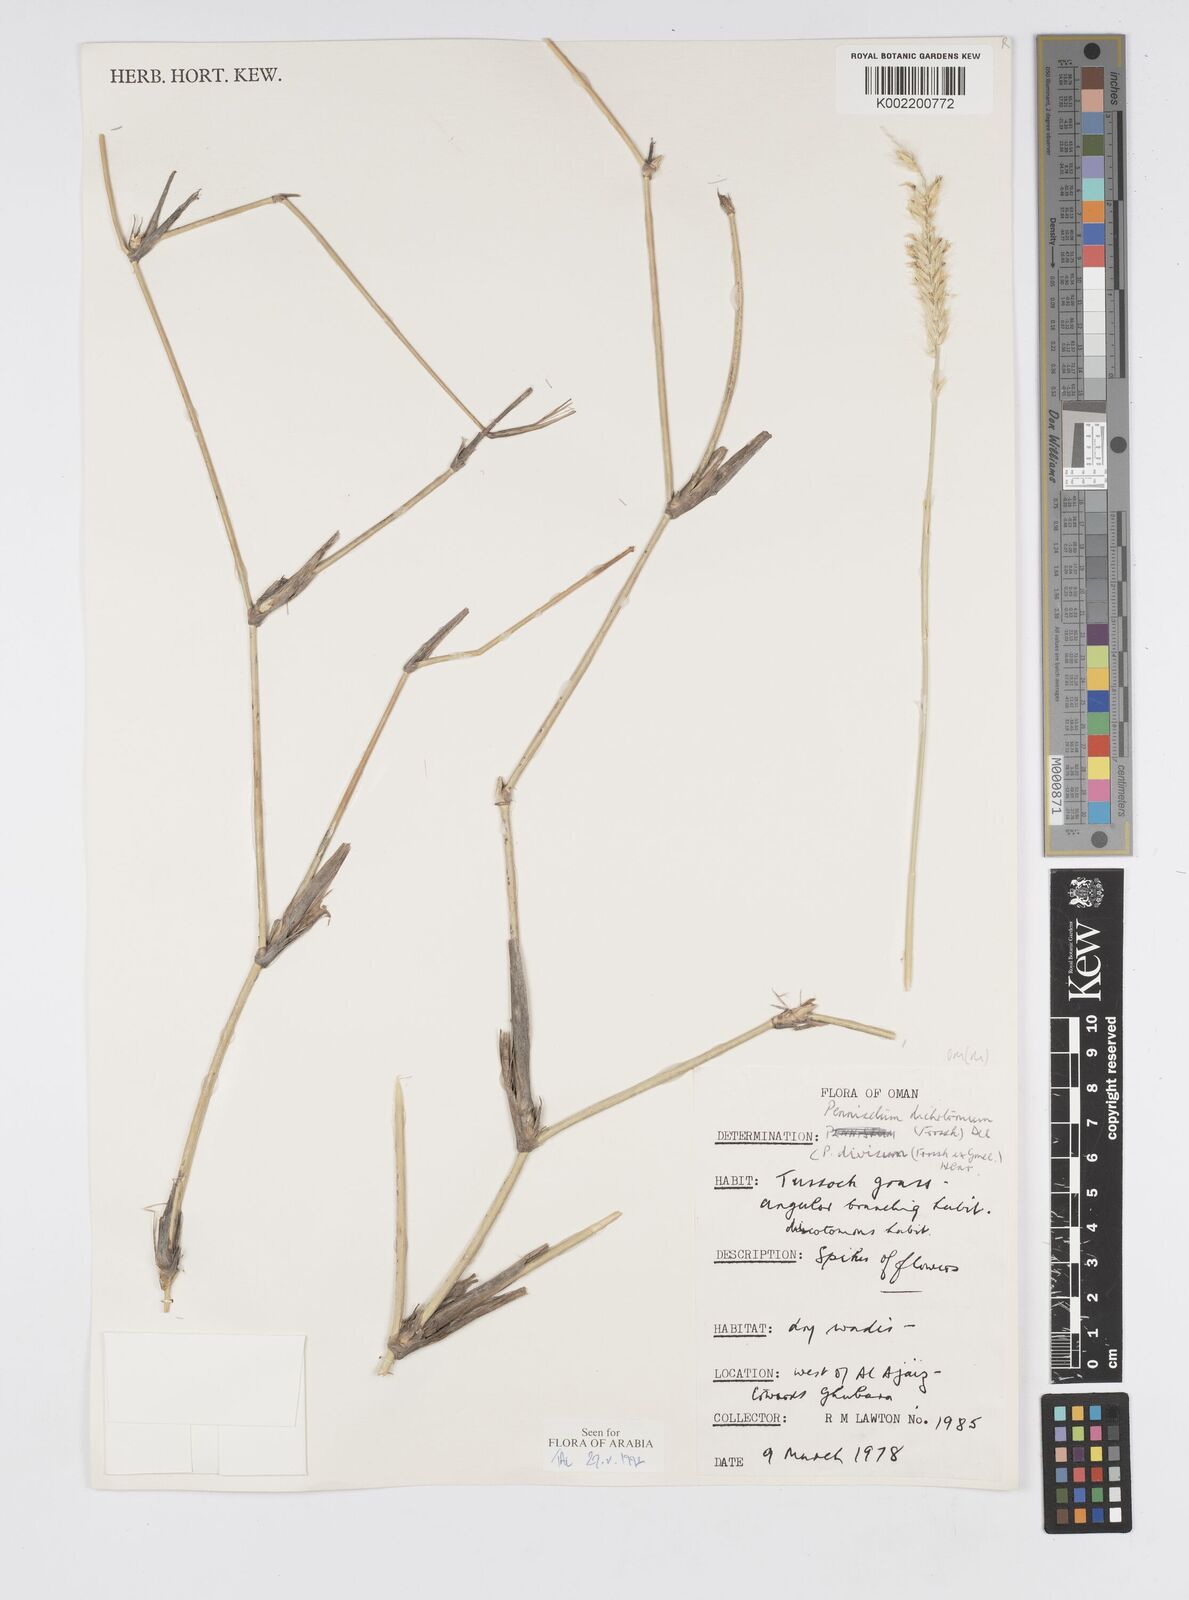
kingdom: Plantae
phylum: Tracheophyta
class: Liliopsida
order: Poales
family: Poaceae
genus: Cenchrus
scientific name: Cenchrus divisus
